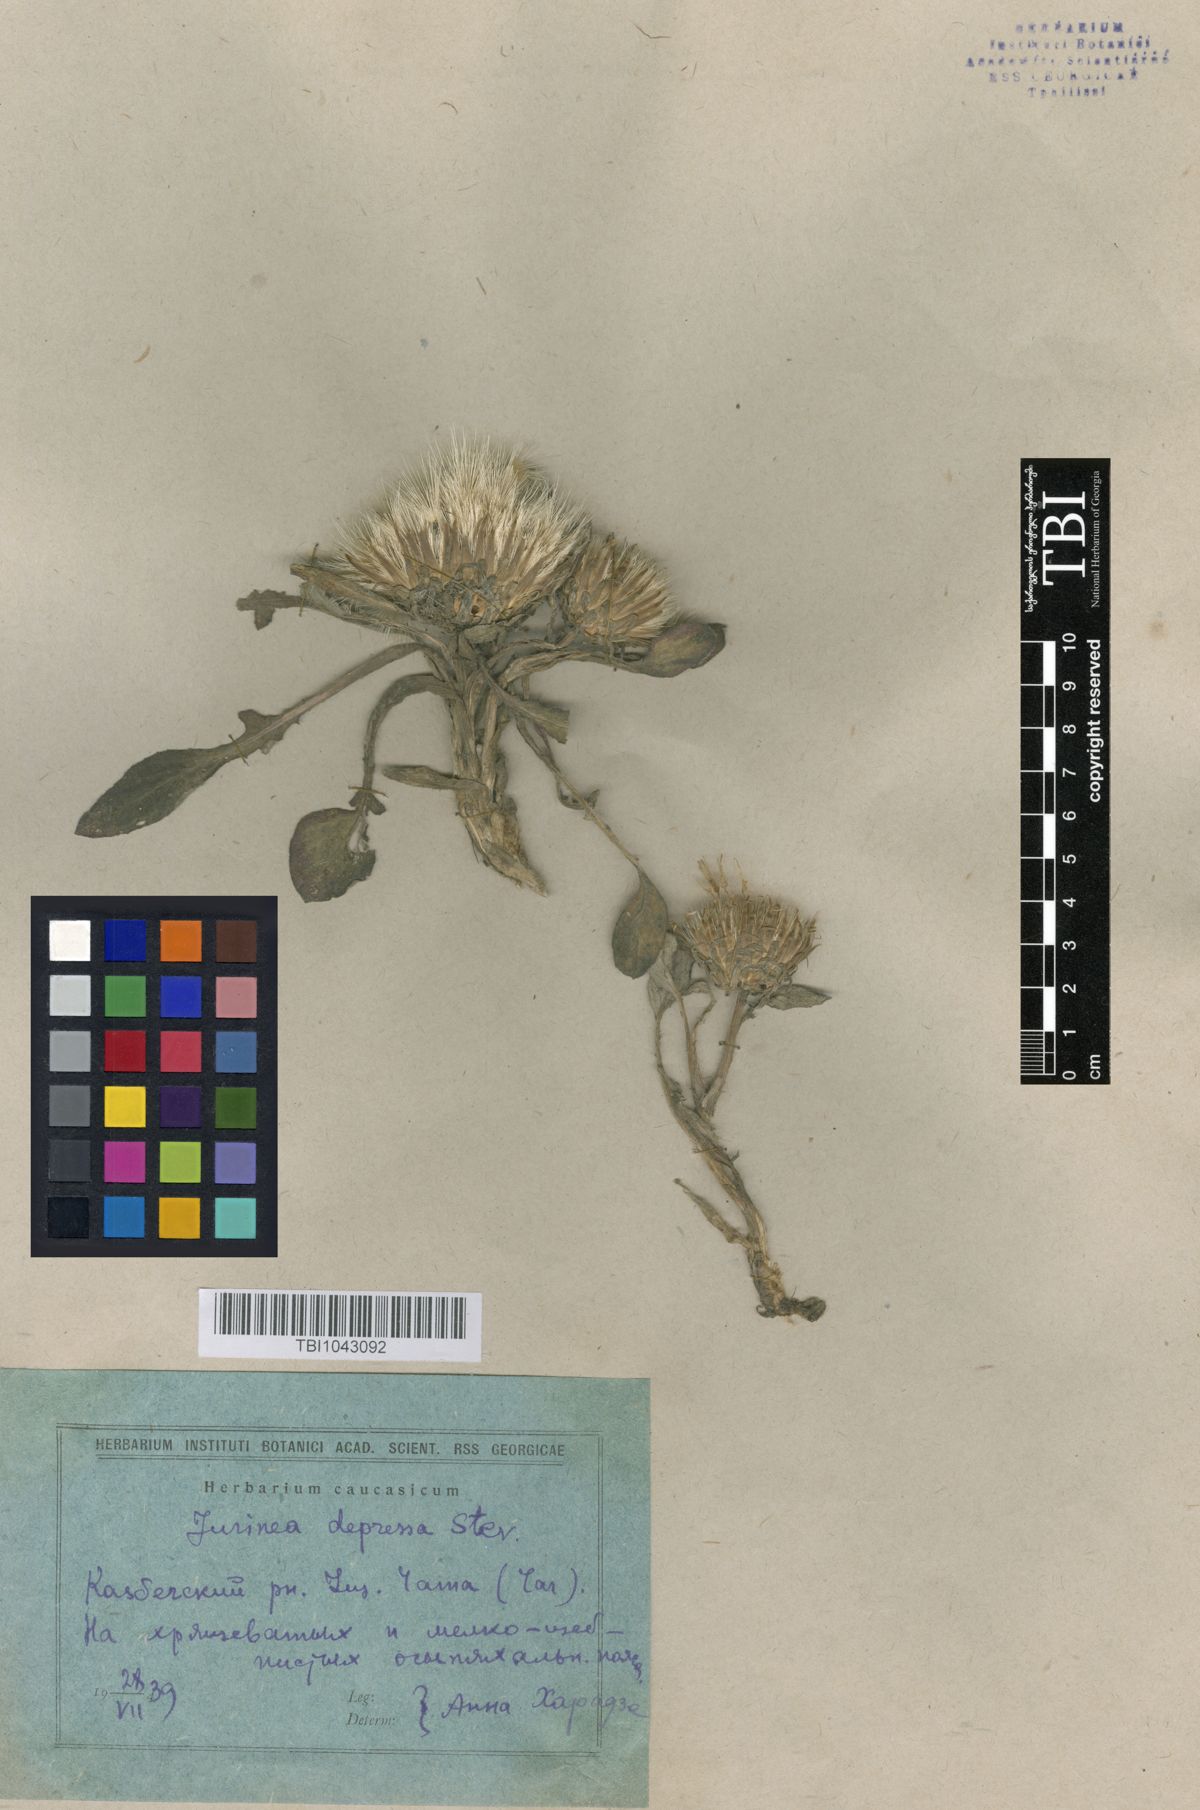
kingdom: Plantae
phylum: Tracheophyta
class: Magnoliopsida
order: Asterales
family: Asteraceae
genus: Jurinea
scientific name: Jurinea moschus
